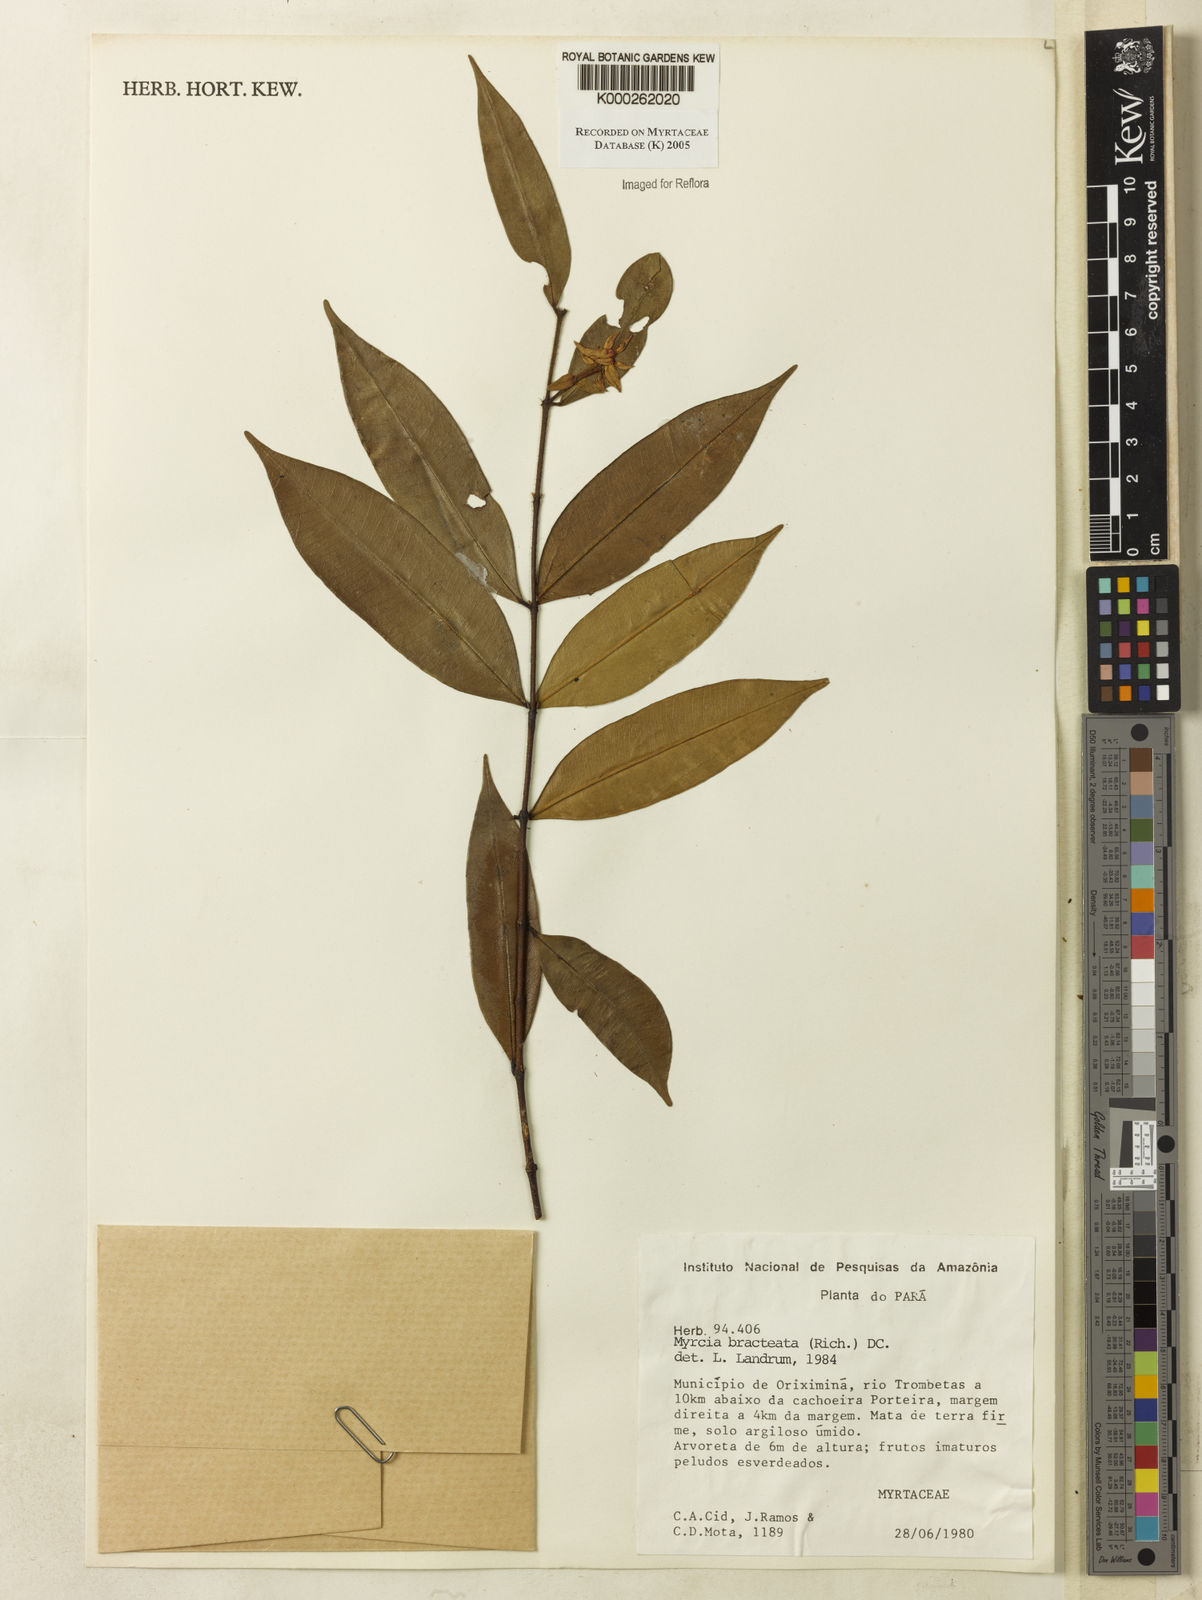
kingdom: Plantae
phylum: Tracheophyta
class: Magnoliopsida
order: Myrtales
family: Myrtaceae
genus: Myrcia
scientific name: Myrcia bracteata
